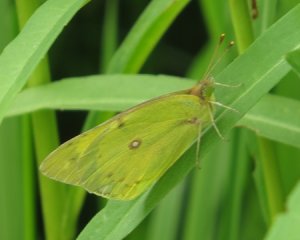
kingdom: Animalia
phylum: Arthropoda
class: Insecta
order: Lepidoptera
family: Pieridae
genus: Colias
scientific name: Colias philodice
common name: Clouded Sulphur
